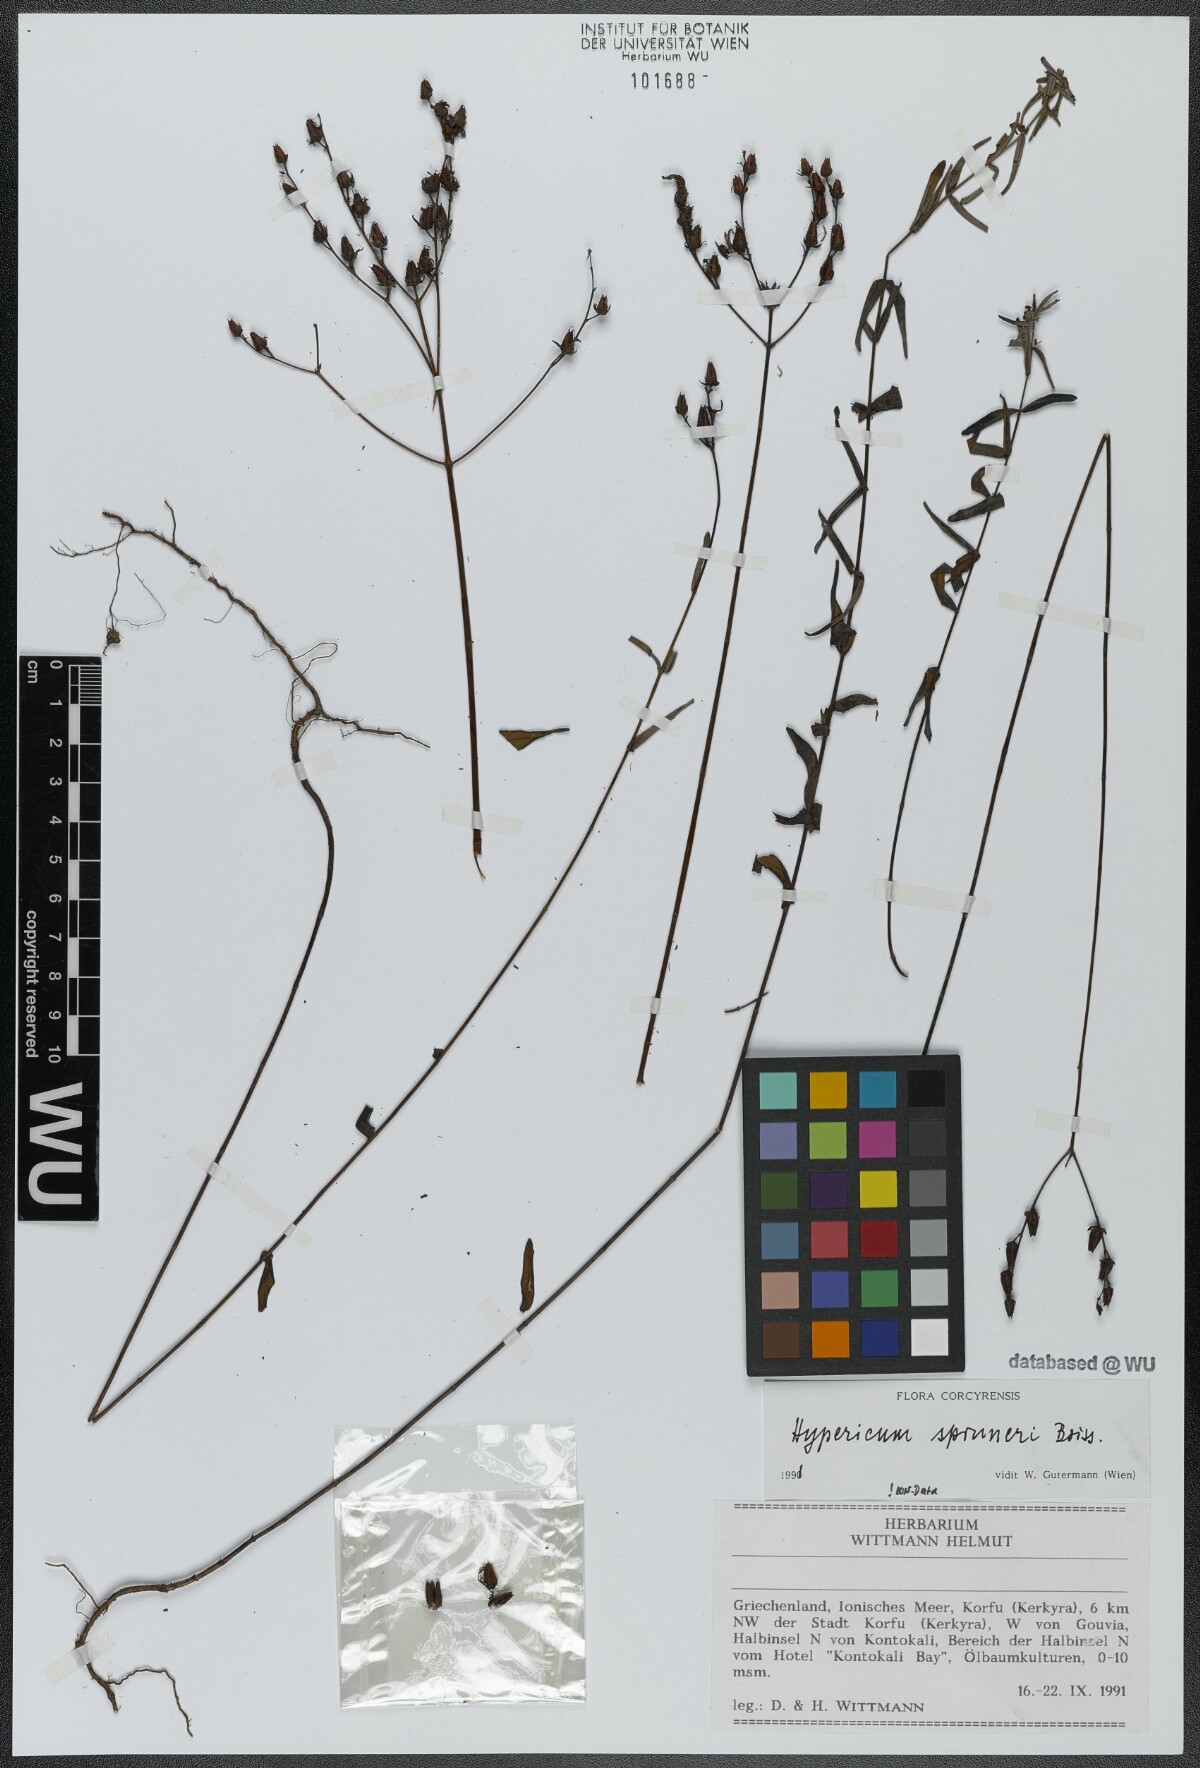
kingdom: Plantae
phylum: Tracheophyta
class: Magnoliopsida
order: Malpighiales
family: Hypericaceae
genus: Hypericum
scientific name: Hypericum spruneri
